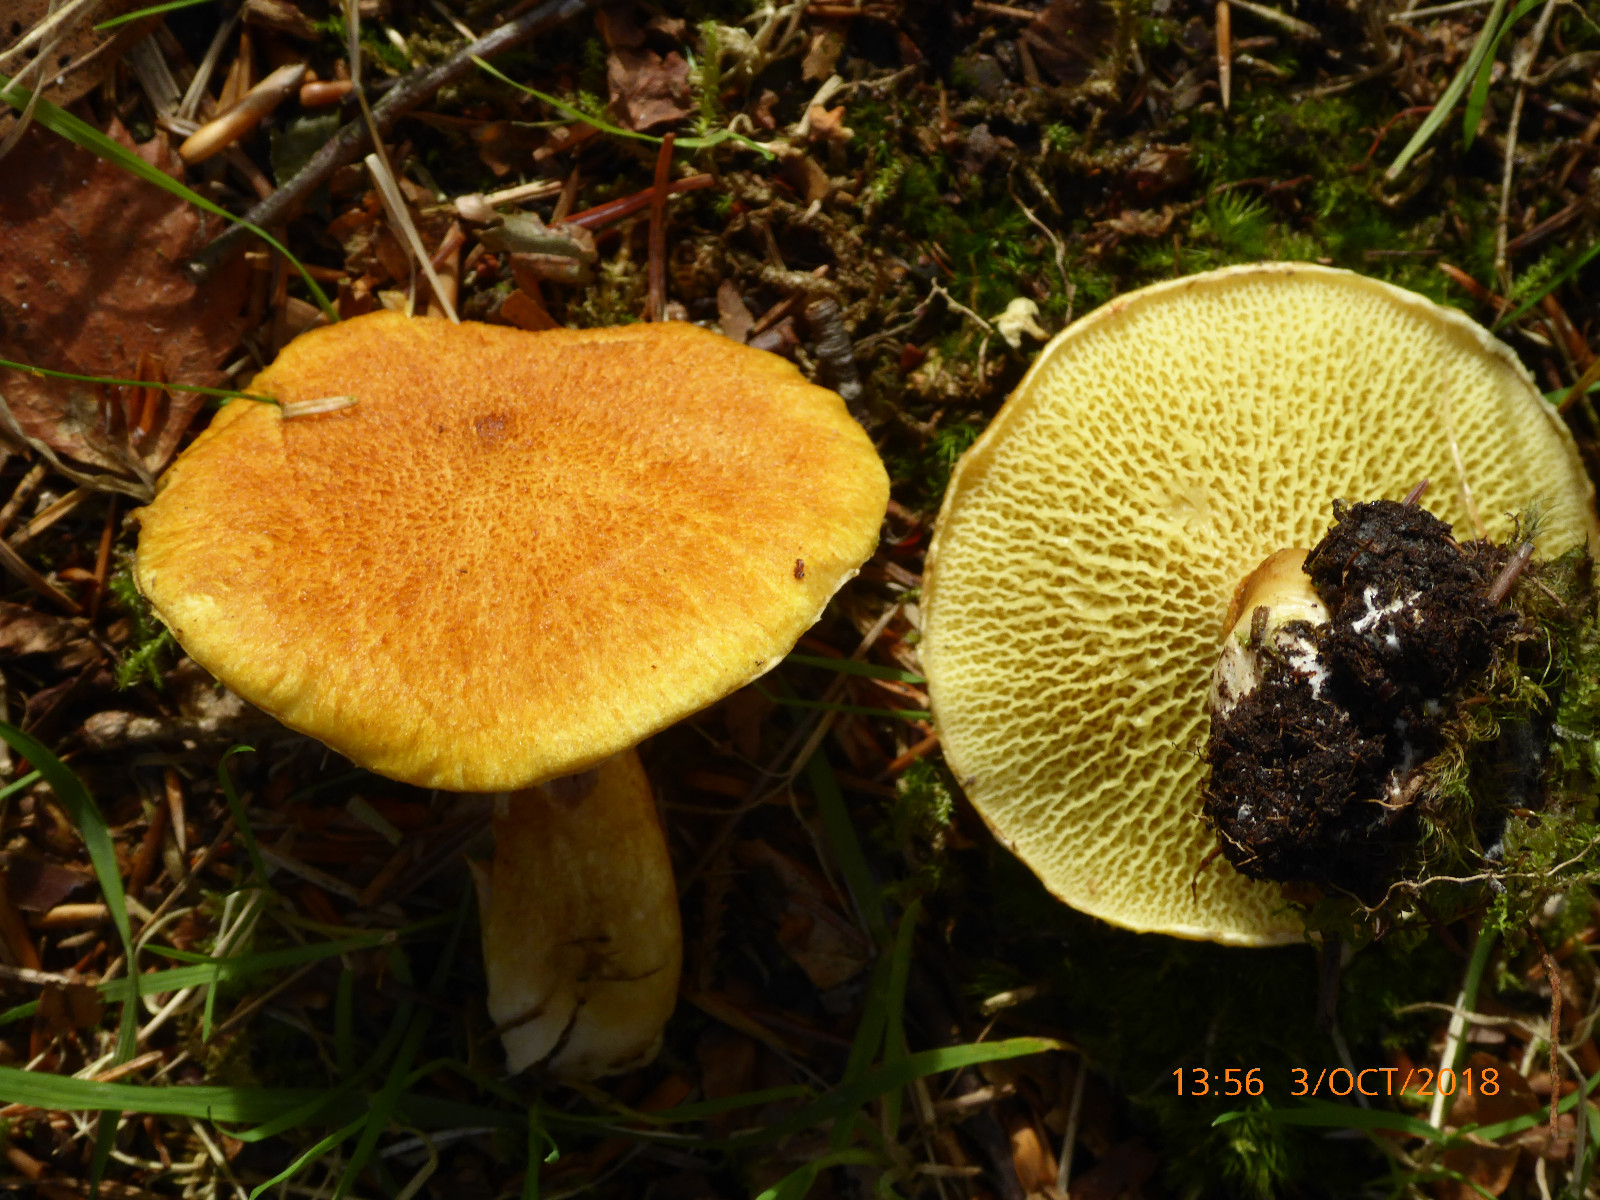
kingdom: Fungi
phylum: Basidiomycota
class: Agaricomycetes
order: Boletales
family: Suillaceae
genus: Suillus
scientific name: Suillus cavipes
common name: hulstokket slimrørhat
